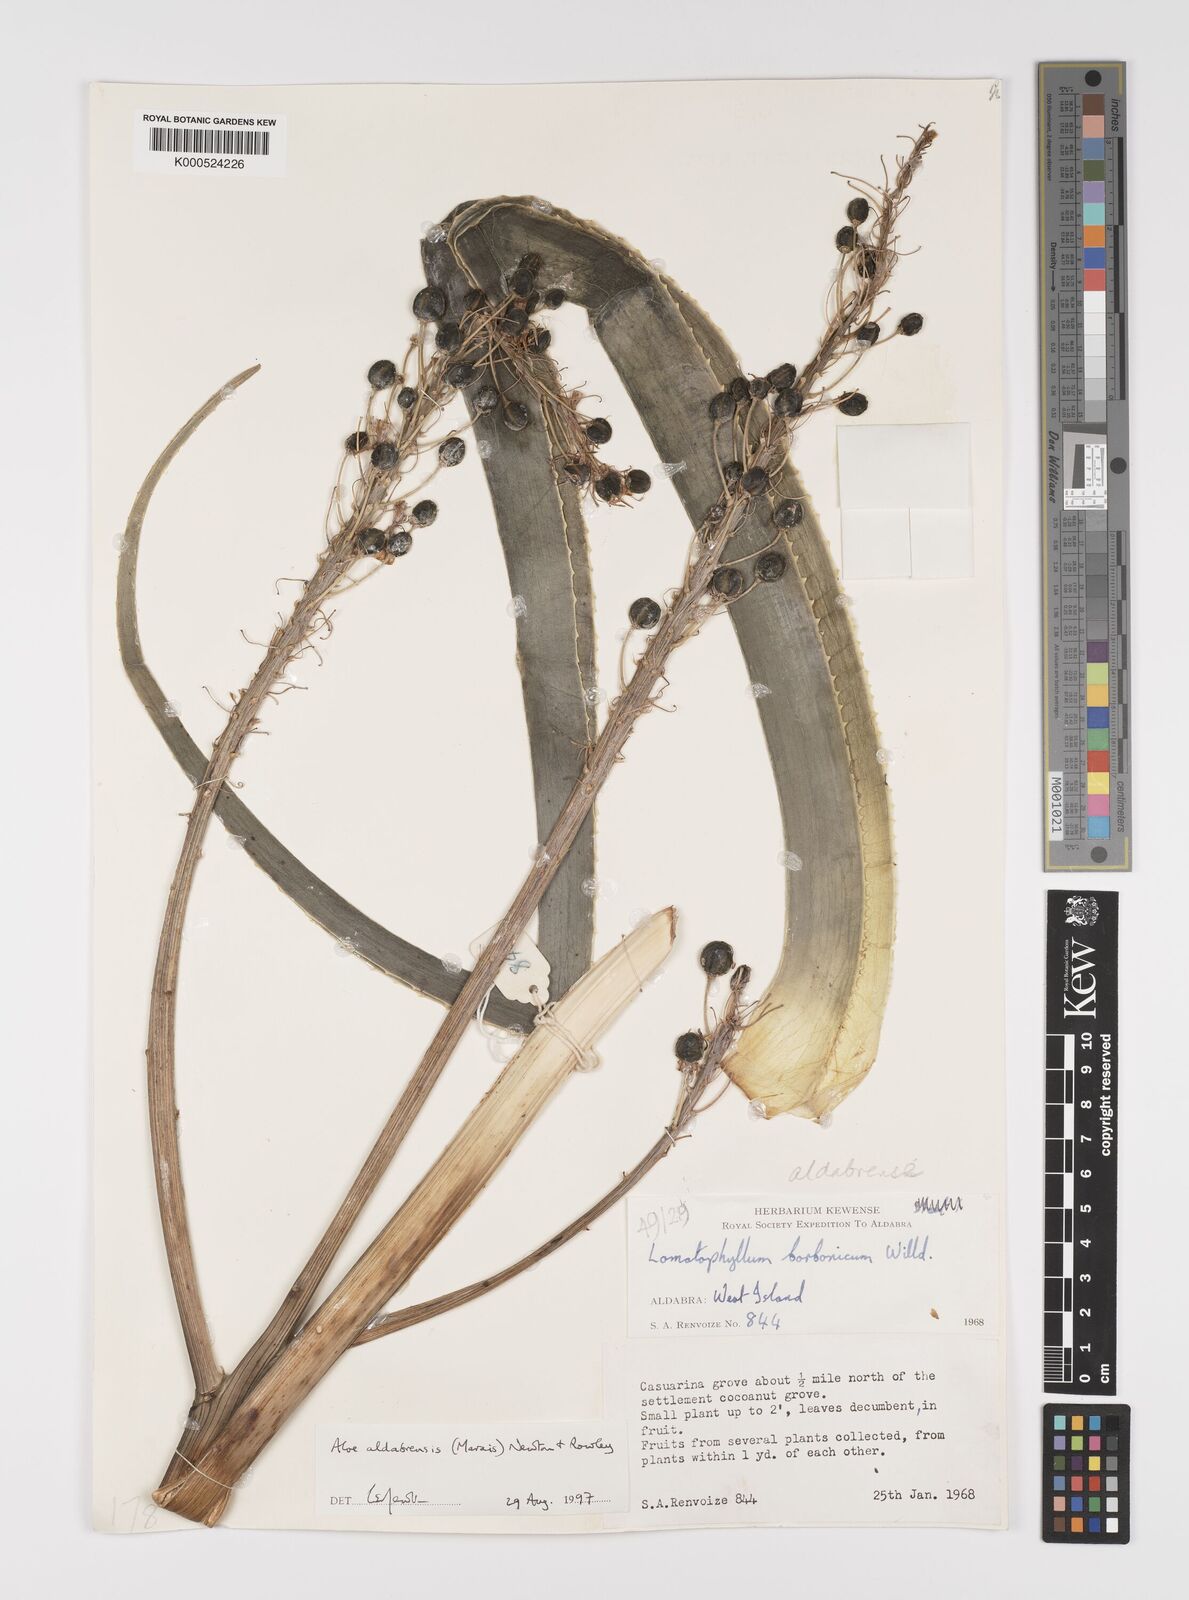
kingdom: Plantae
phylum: Tracheophyta
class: Liliopsida
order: Asparagales
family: Asphodelaceae
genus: Aloe
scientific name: Aloe aldabrensis
